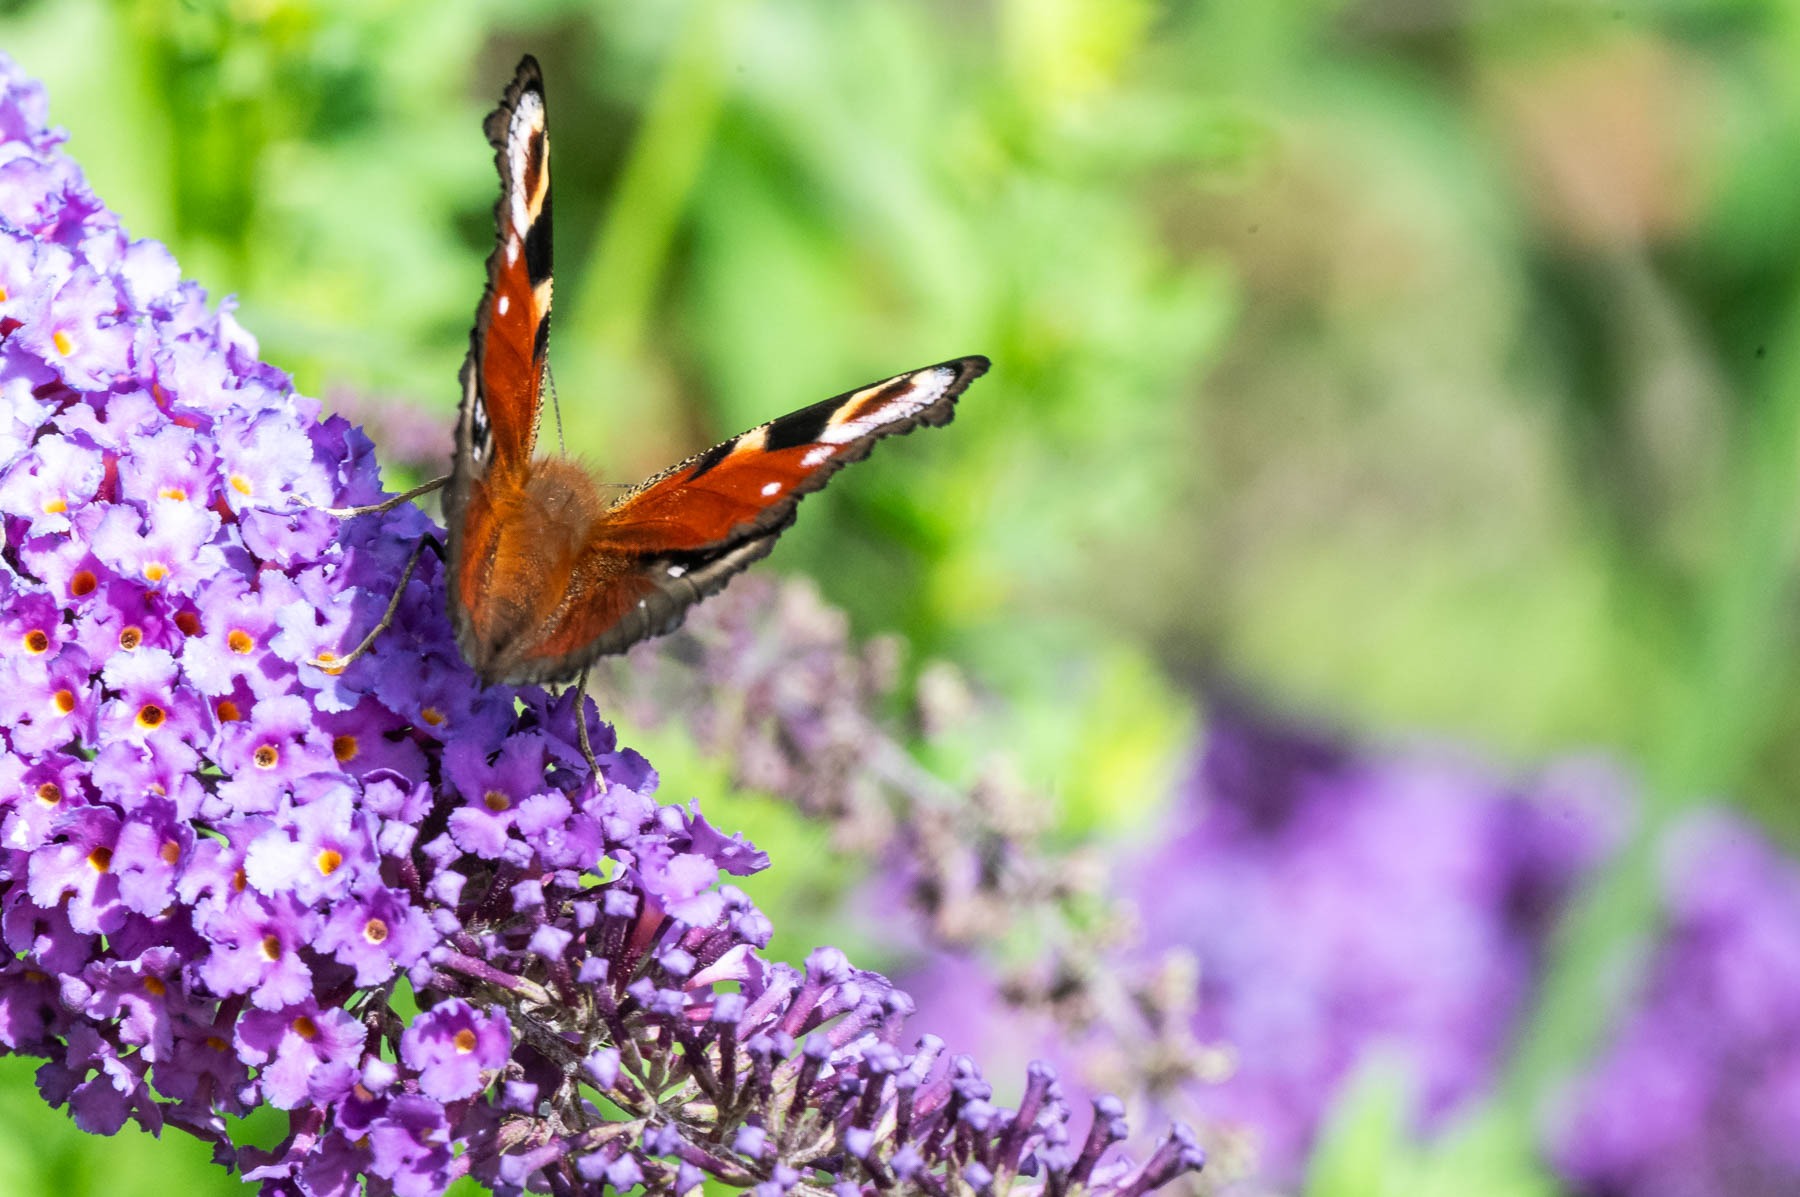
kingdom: Animalia
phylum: Arthropoda
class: Insecta
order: Lepidoptera
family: Nymphalidae
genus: Aglais
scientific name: Aglais io
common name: Dagpåfugleøje
